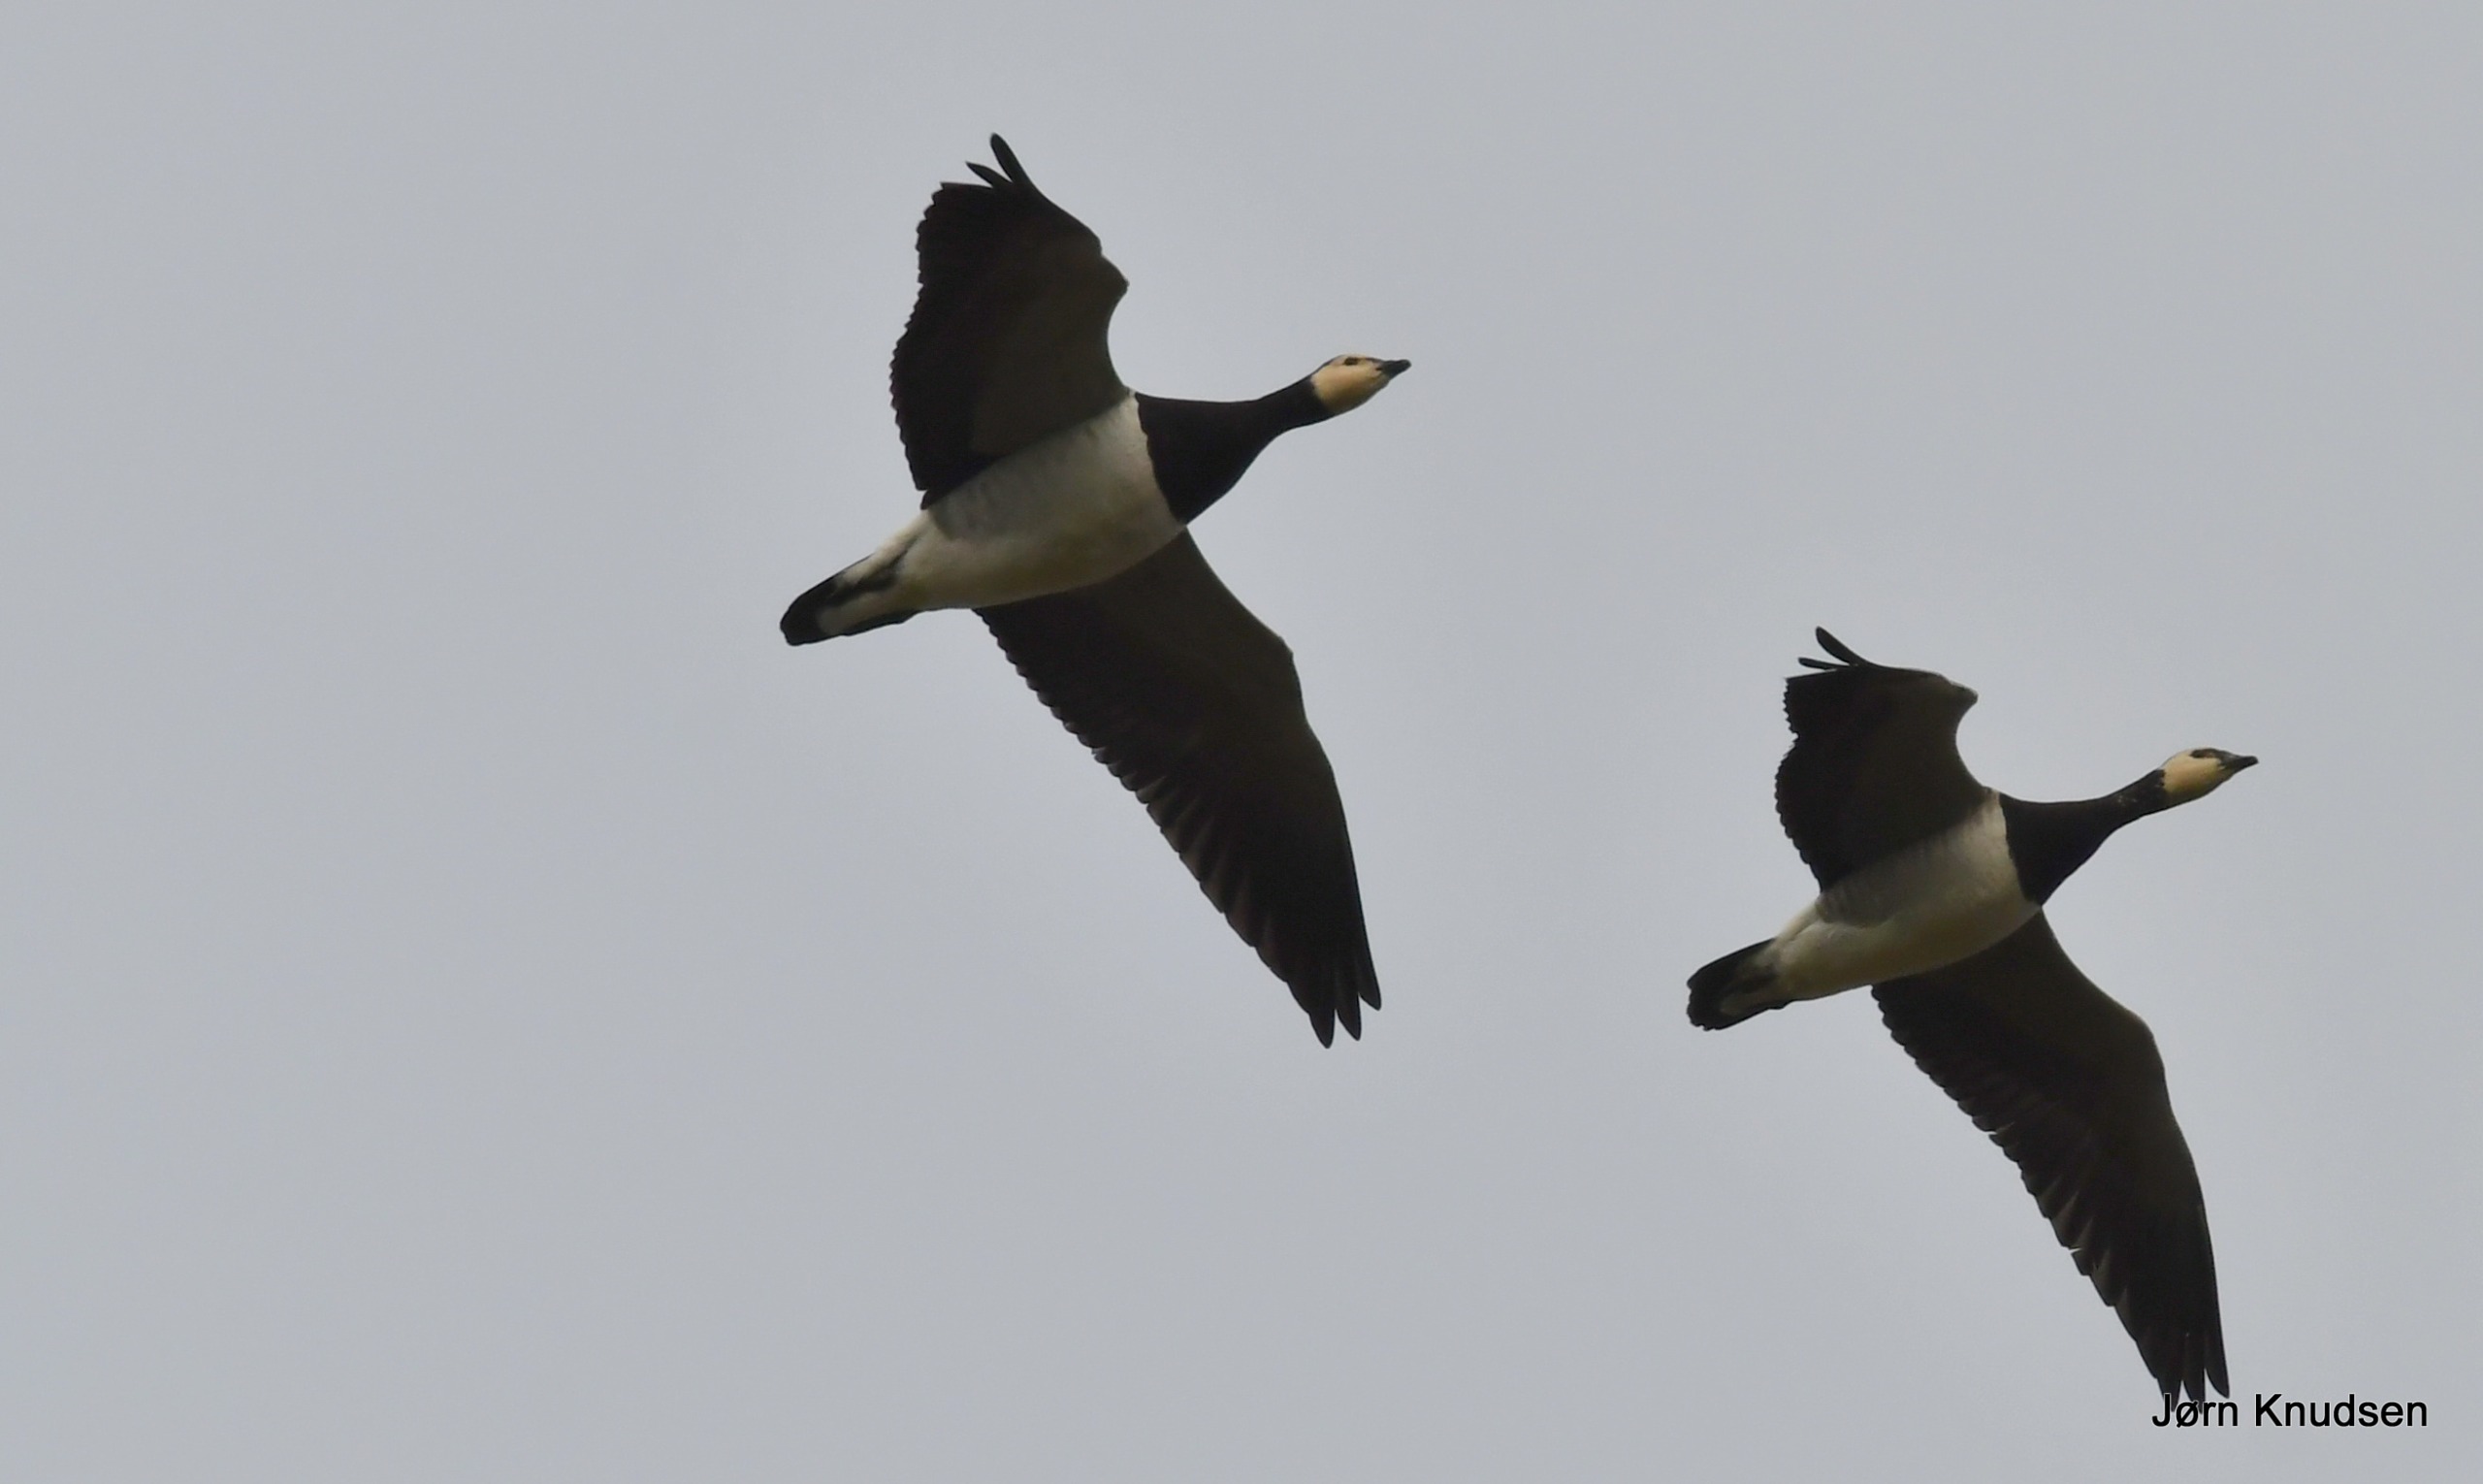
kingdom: Animalia
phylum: Chordata
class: Aves
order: Anseriformes
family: Anatidae
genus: Branta
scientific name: Branta leucopsis
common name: Bramgås
